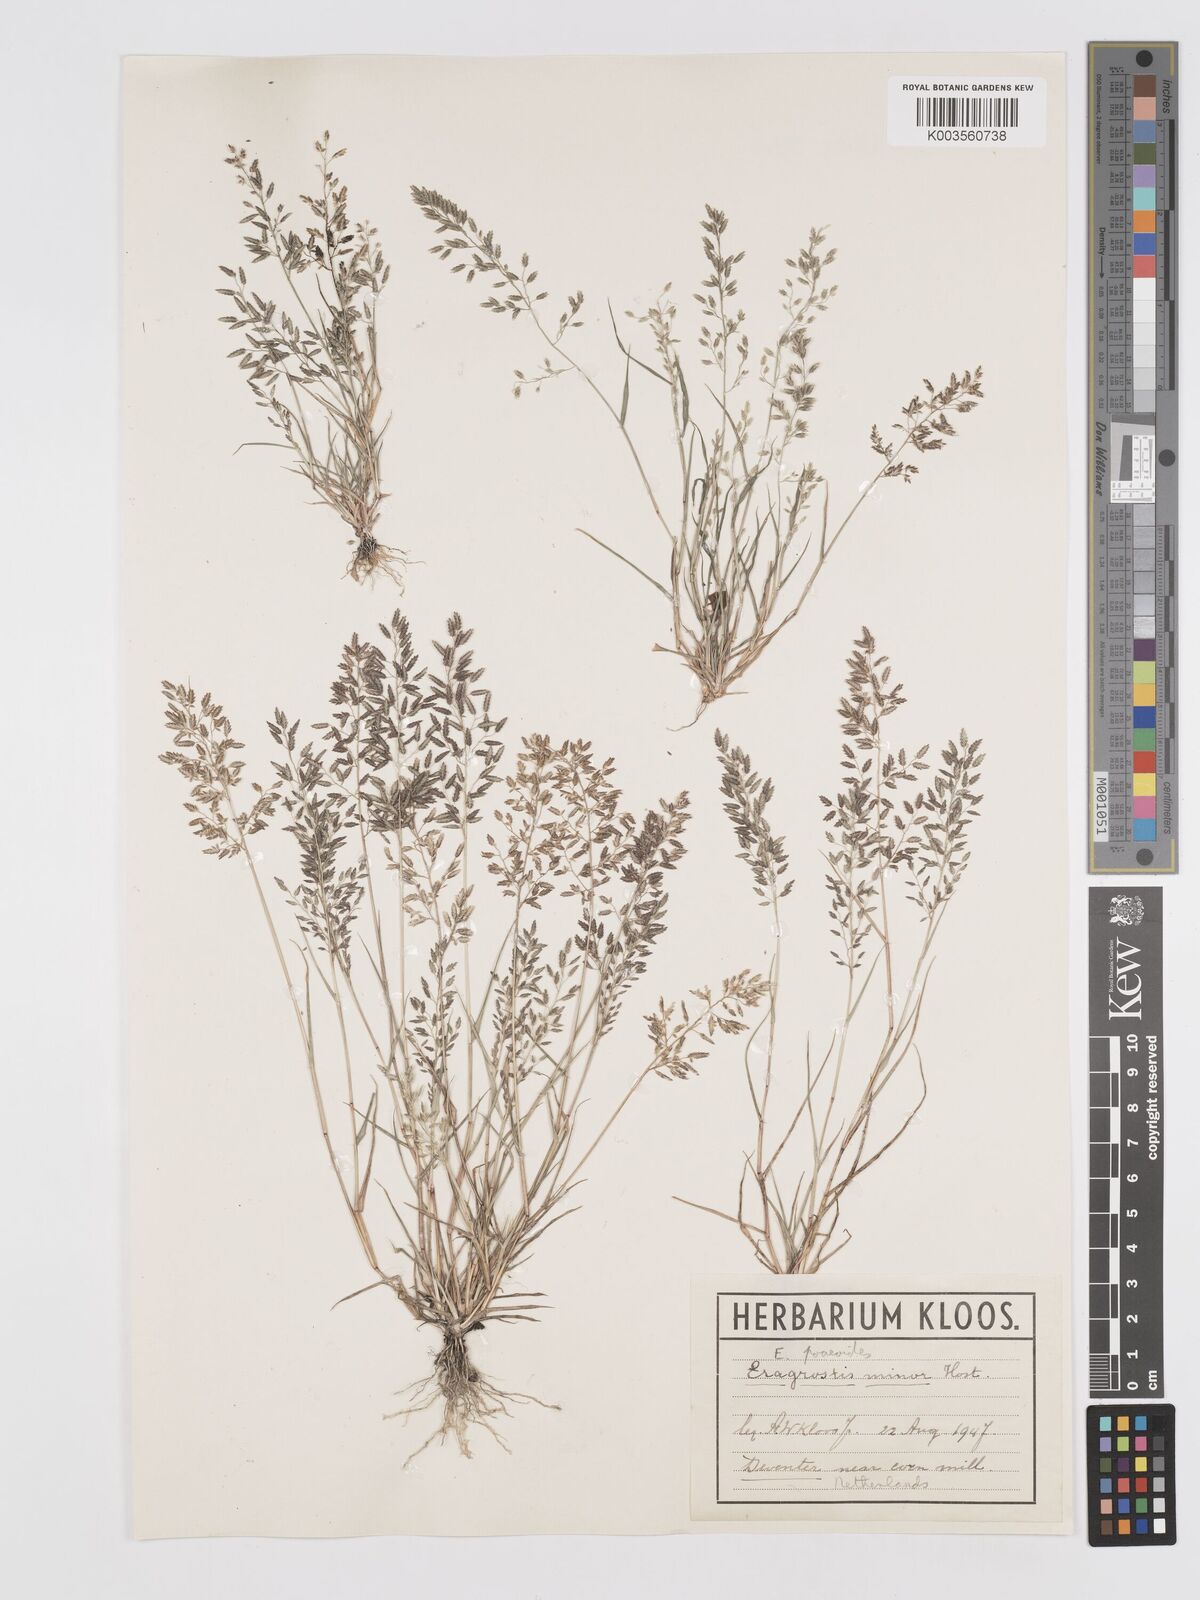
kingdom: Plantae
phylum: Tracheophyta
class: Liliopsida
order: Poales
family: Poaceae
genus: Eragrostis
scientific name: Eragrostis minor
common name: Small love-grass
